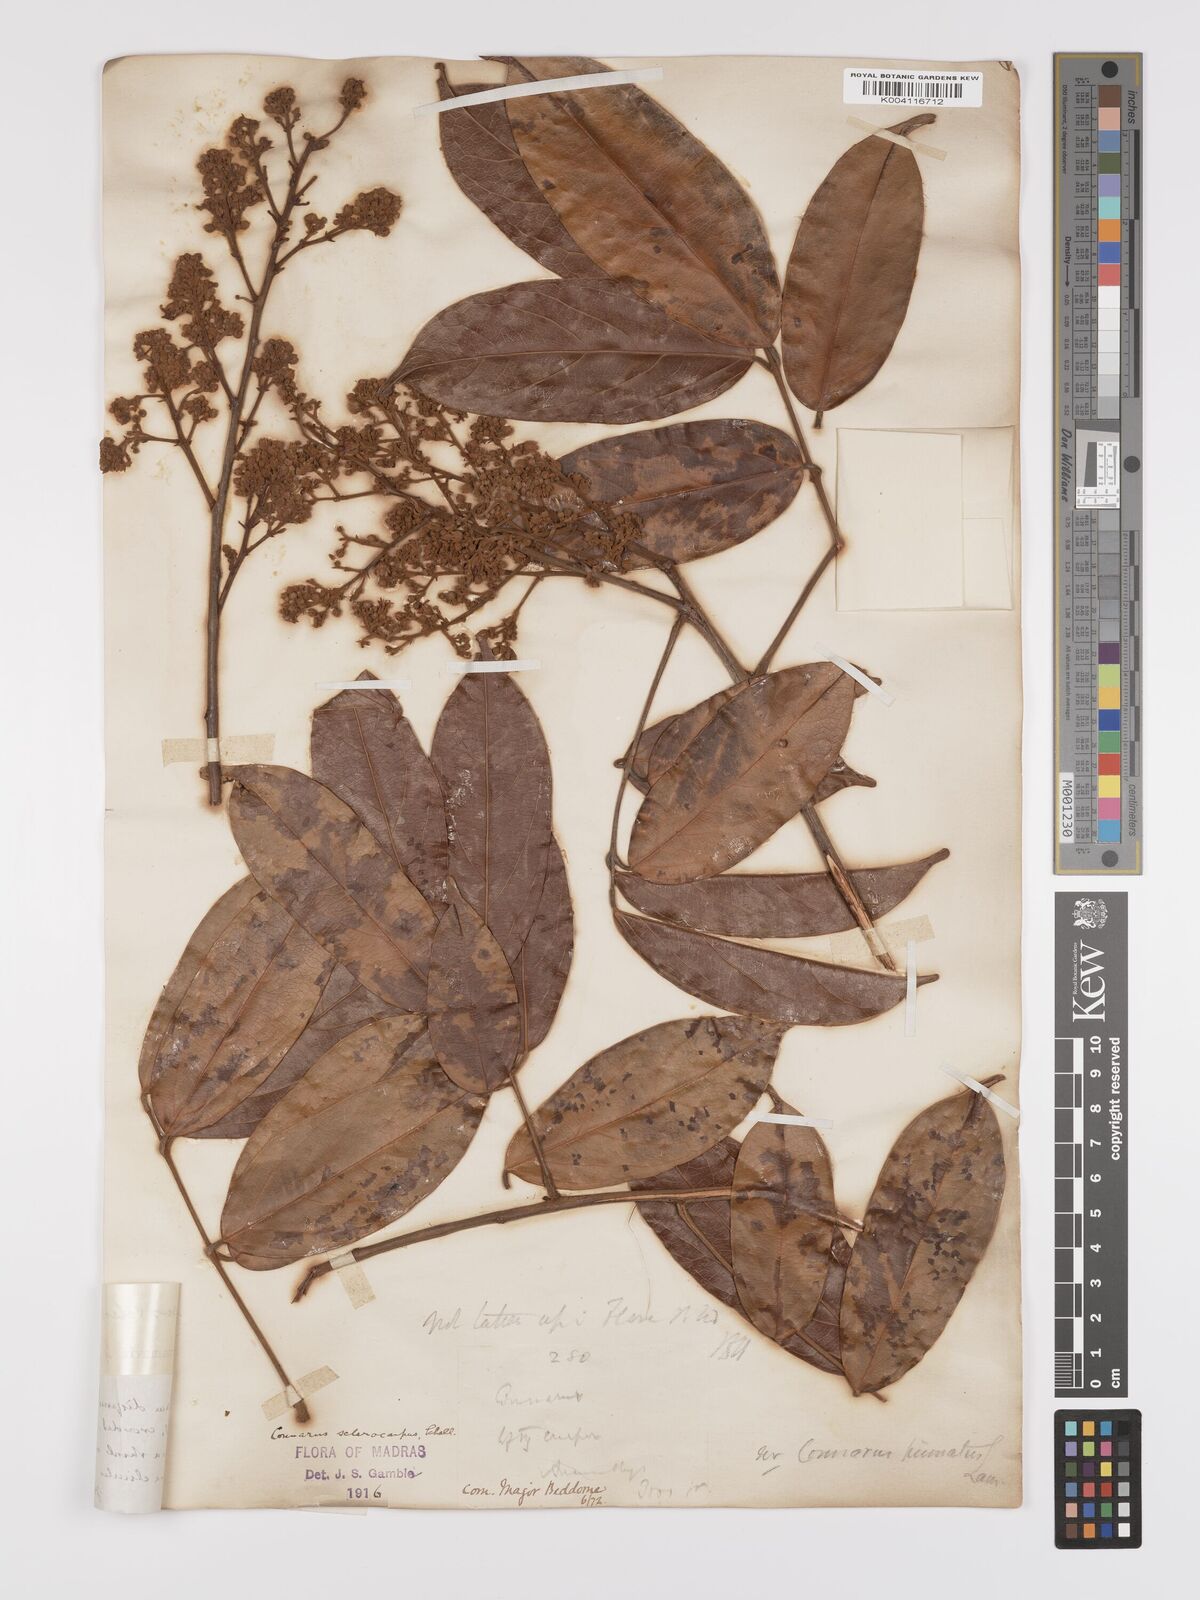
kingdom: Plantae
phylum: Tracheophyta
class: Magnoliopsida
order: Oxalidales
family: Connaraceae
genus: Connarus
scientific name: Connarus sclerocarpus
